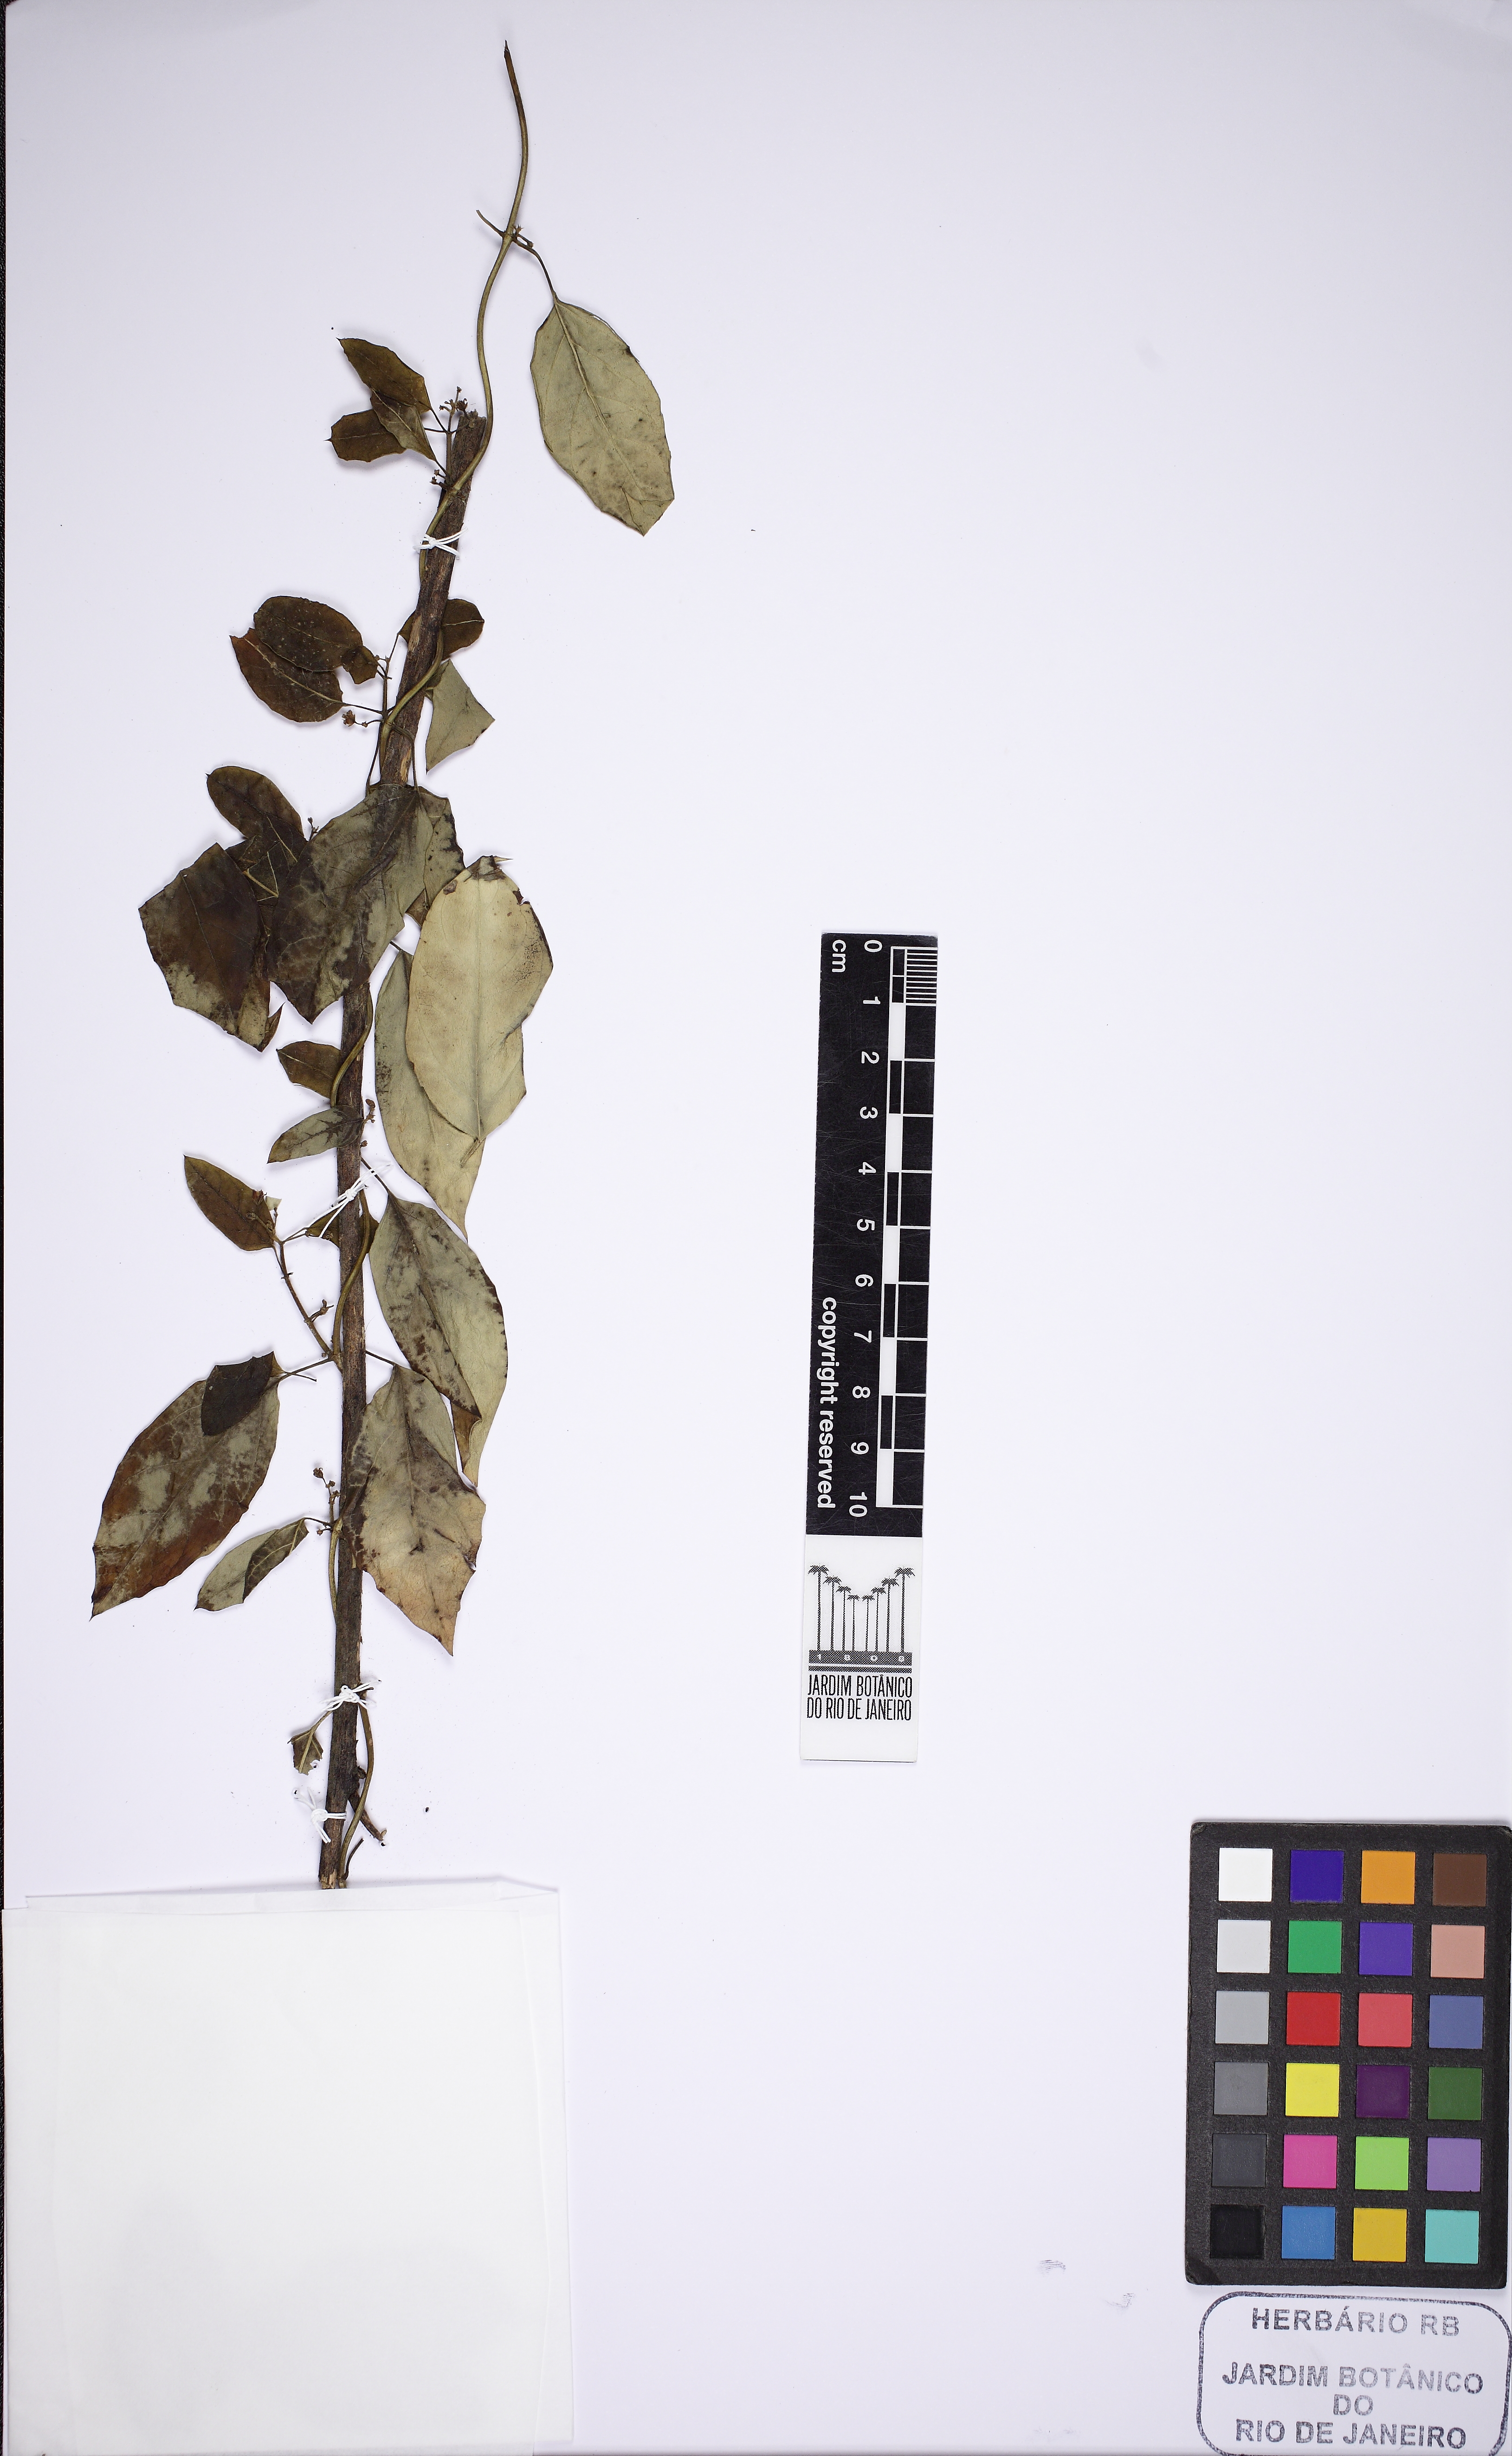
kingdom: Plantae
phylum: Tracheophyta
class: Magnoliopsida
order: Gentianales
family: Apocynaceae
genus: Tassadia
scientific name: Tassadia
